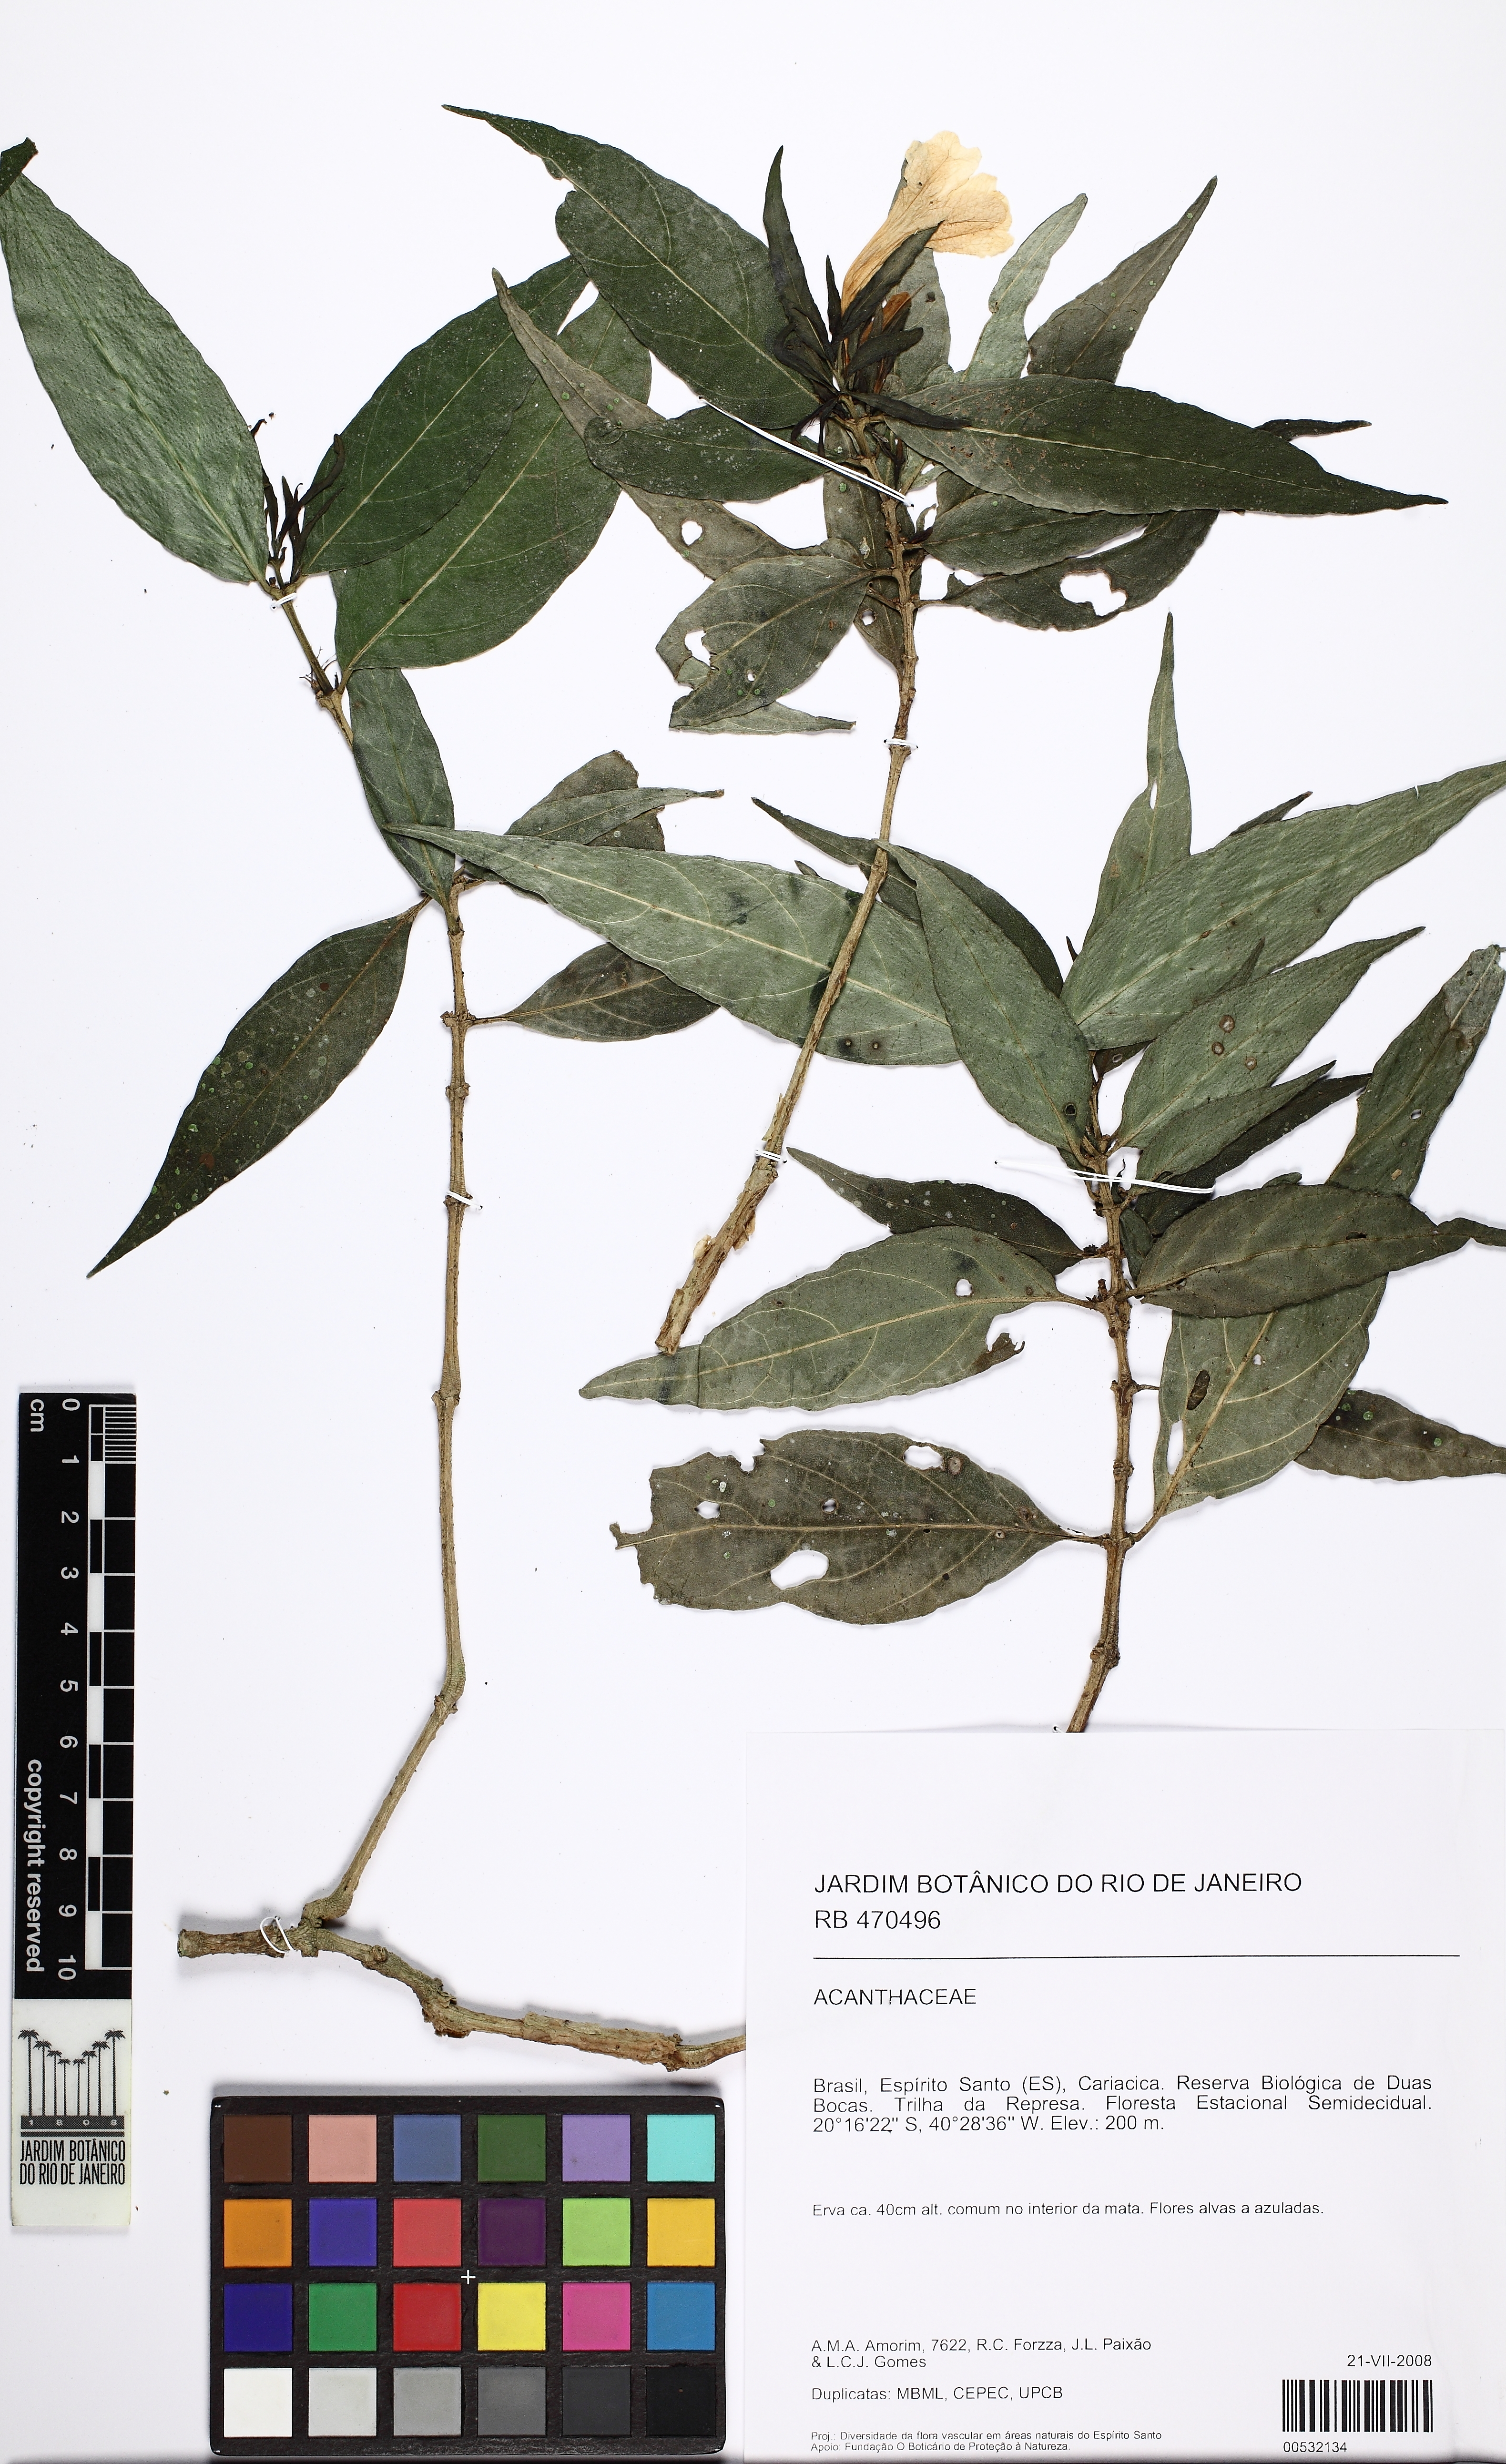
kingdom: Plantae
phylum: Tracheophyta
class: Magnoliopsida
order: Lamiales
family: Acanthaceae
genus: Ruellia
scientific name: Ruellia solitaria
